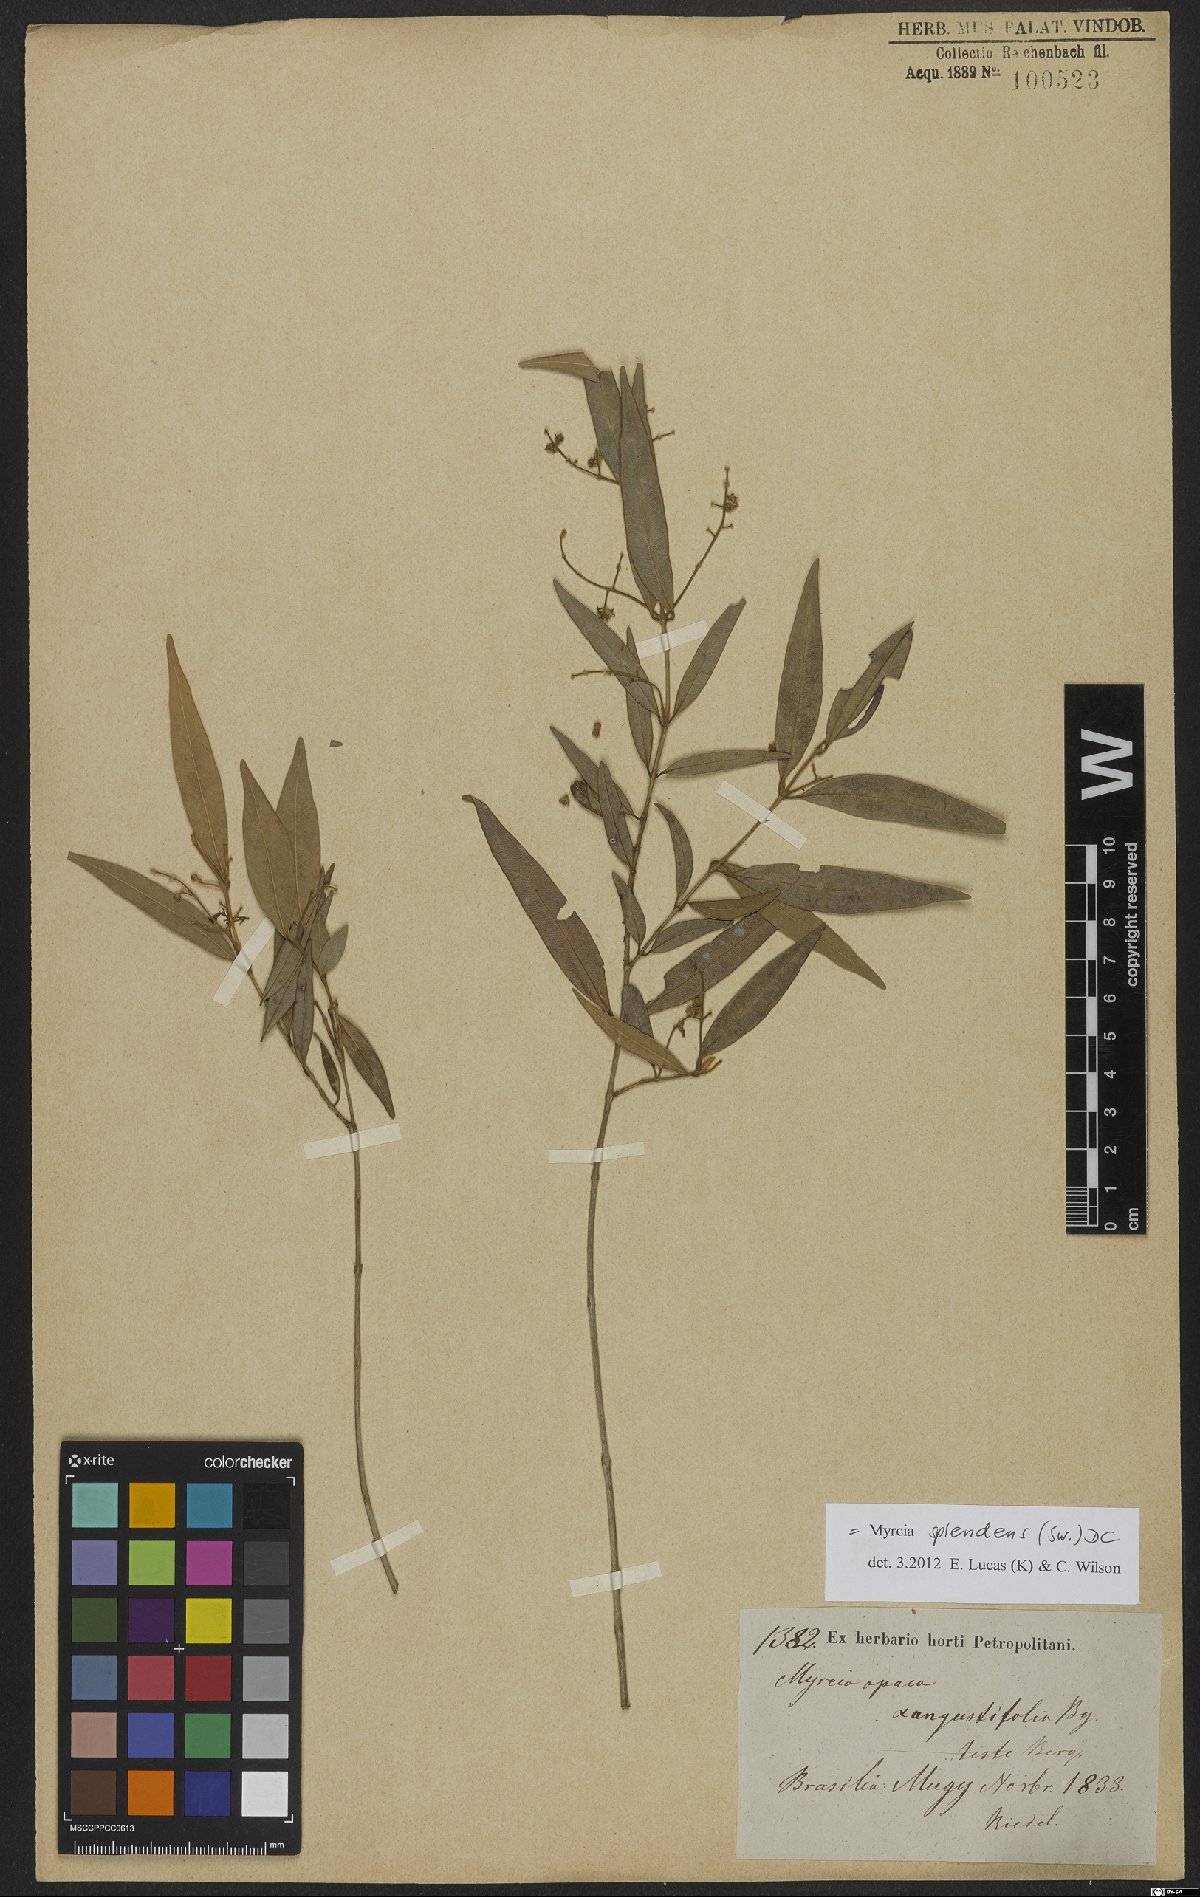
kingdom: Plantae
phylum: Tracheophyta
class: Magnoliopsida
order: Myrtales
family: Myrtaceae
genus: Myrcia
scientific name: Myrcia splendens
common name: Surinam cherry
